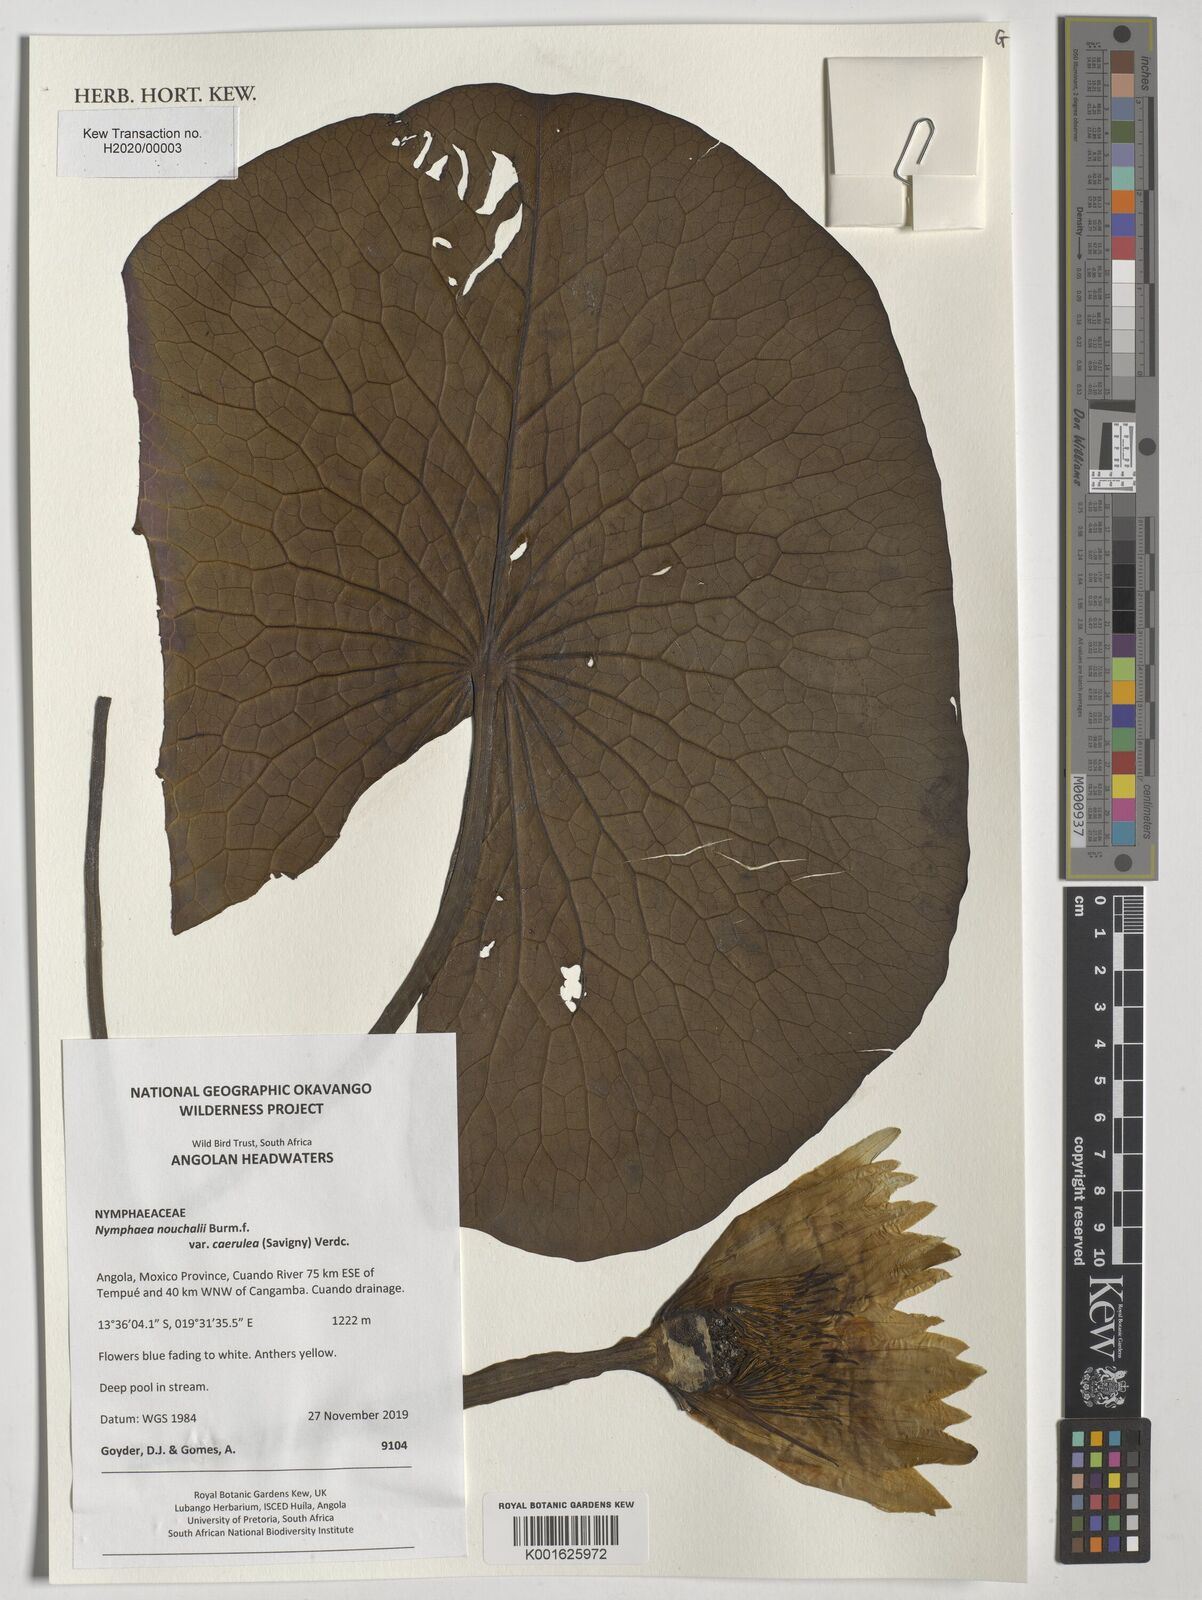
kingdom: Plantae
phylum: Tracheophyta
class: Magnoliopsida
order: Nymphaeales
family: Nymphaeaceae
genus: Nymphaea
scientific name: Nymphaea nouchali
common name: Blue lotus
